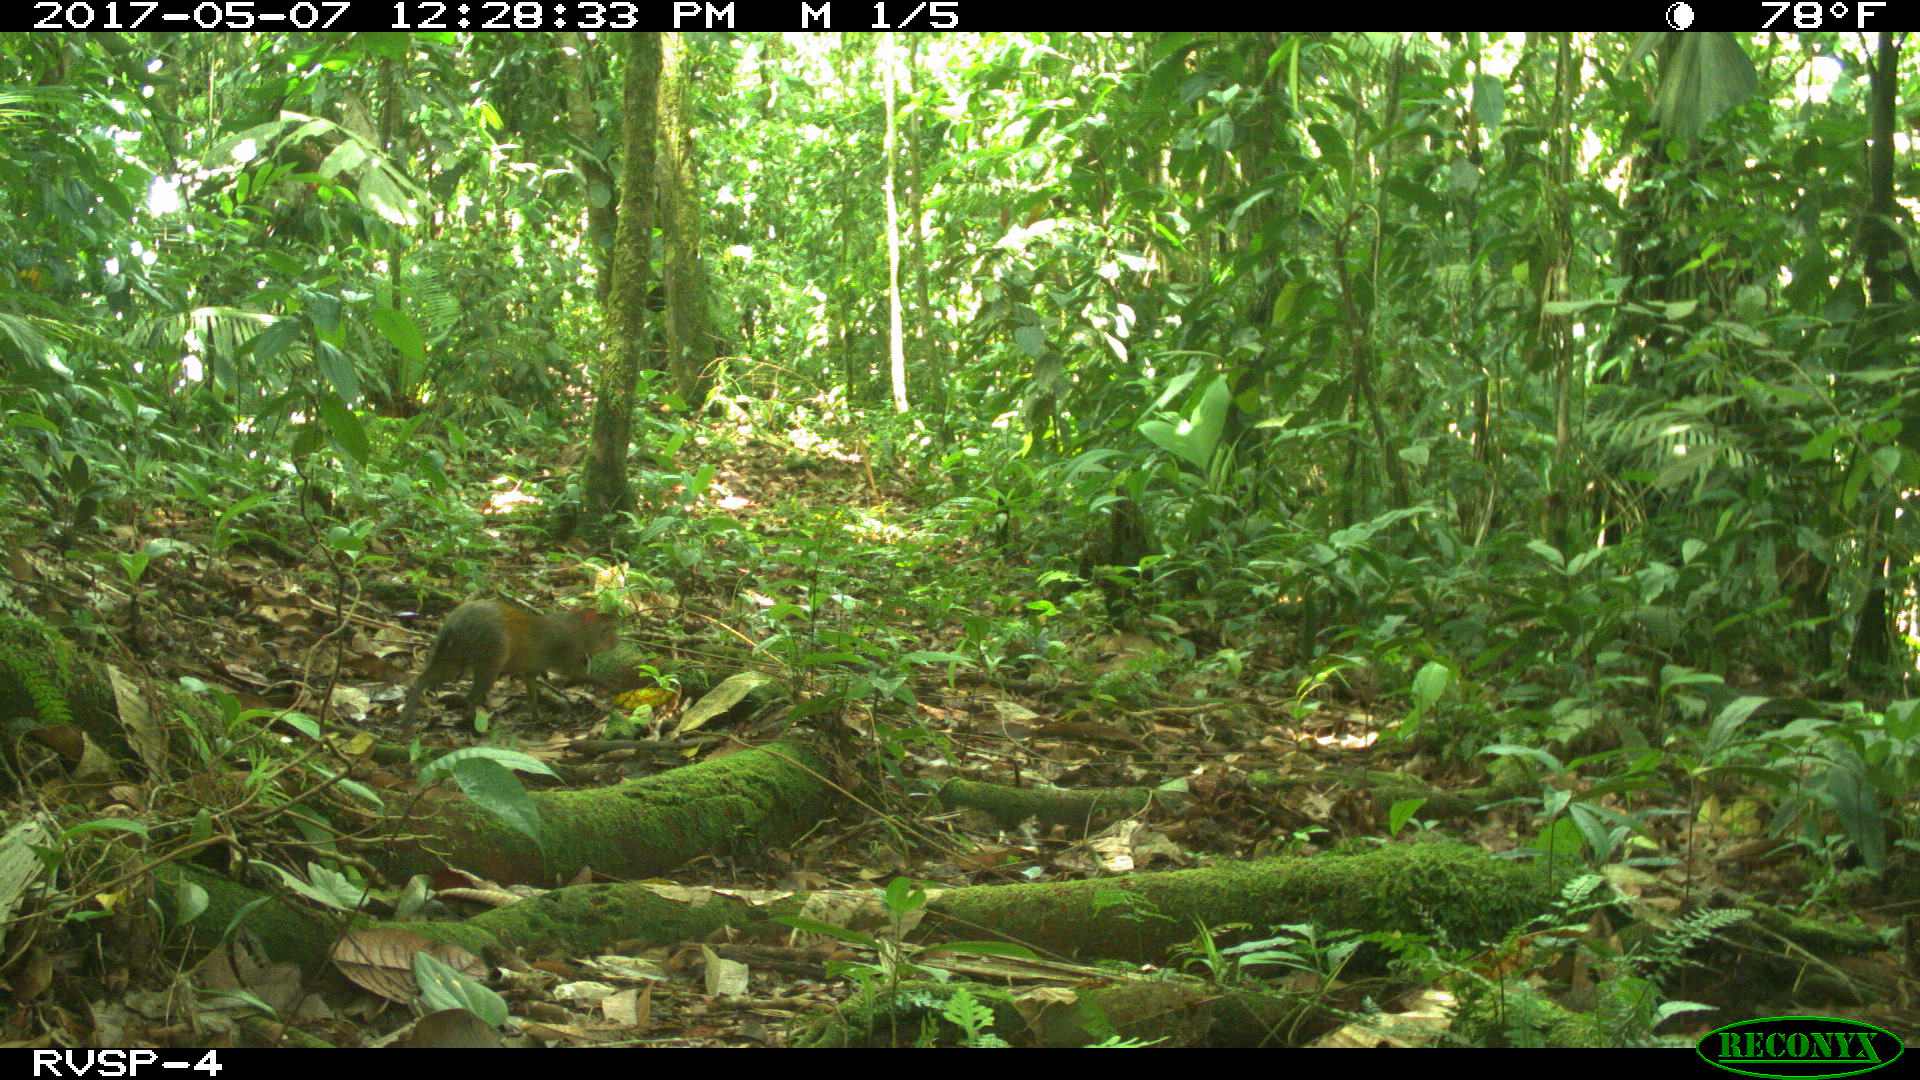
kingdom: Animalia
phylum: Chordata
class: Mammalia
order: Rodentia
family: Dasyproctidae
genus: Dasyprocta
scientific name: Dasyprocta punctata
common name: Central american agouti
